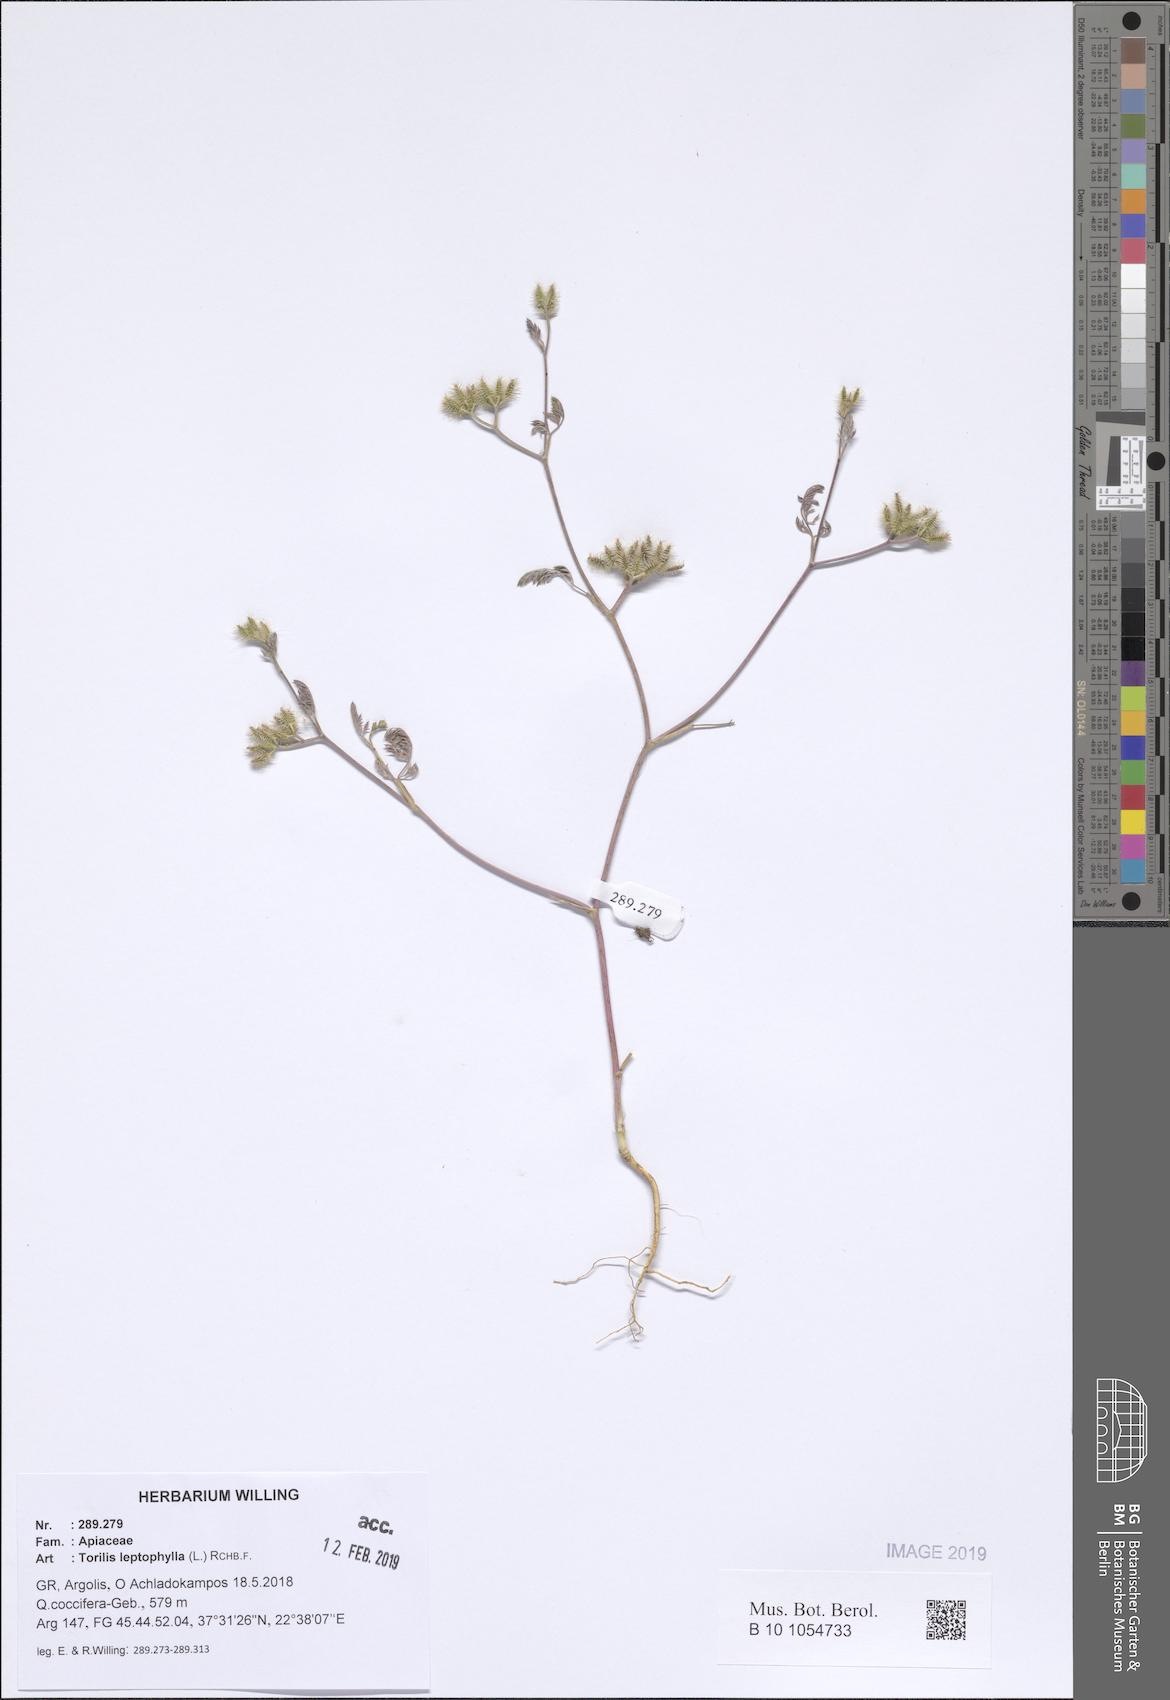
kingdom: Plantae
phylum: Tracheophyta
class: Magnoliopsida
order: Apiales
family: Apiaceae
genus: Torilis
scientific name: Torilis leptophylla
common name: Bristlefruit hedgeparsley
